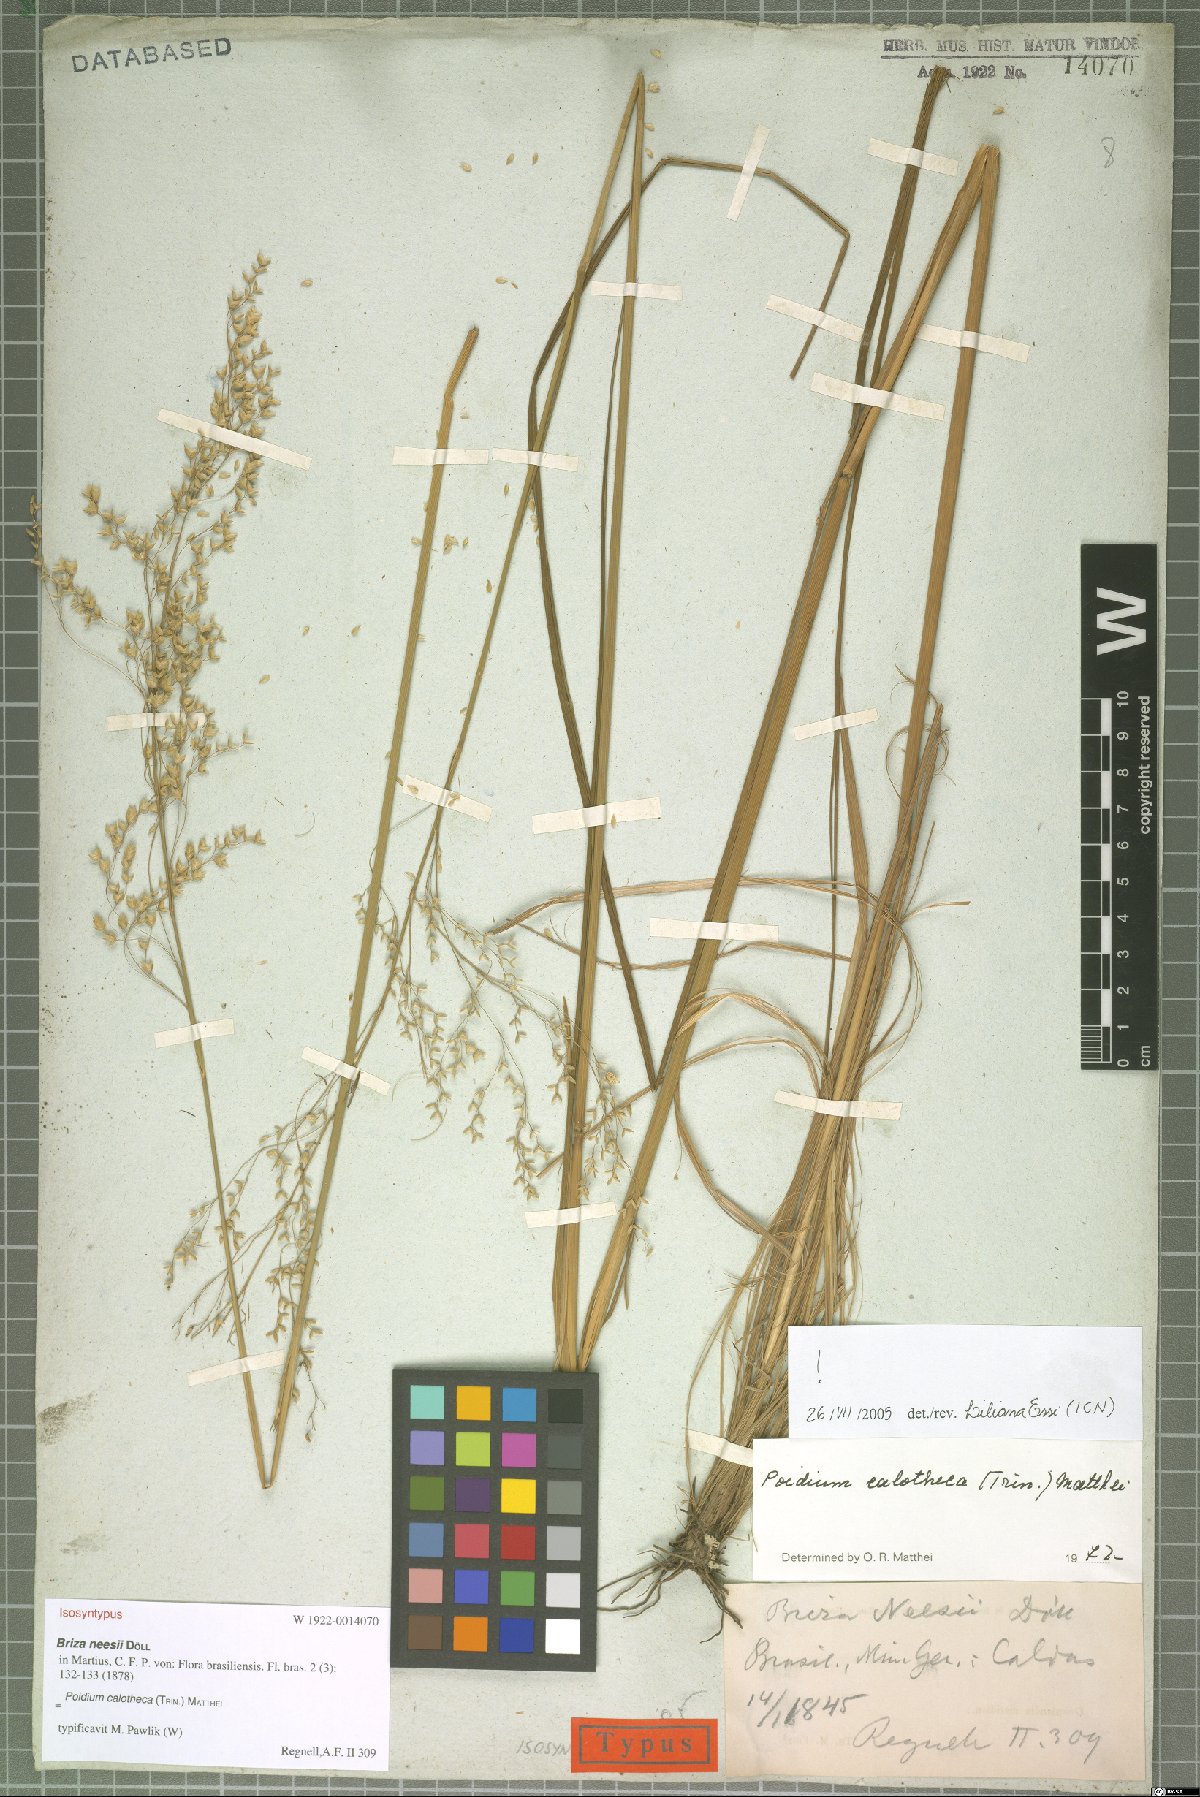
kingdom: Plantae
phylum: Tracheophyta
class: Liliopsida
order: Poales
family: Poaceae
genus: Poidium
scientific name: Poidium calotheca
